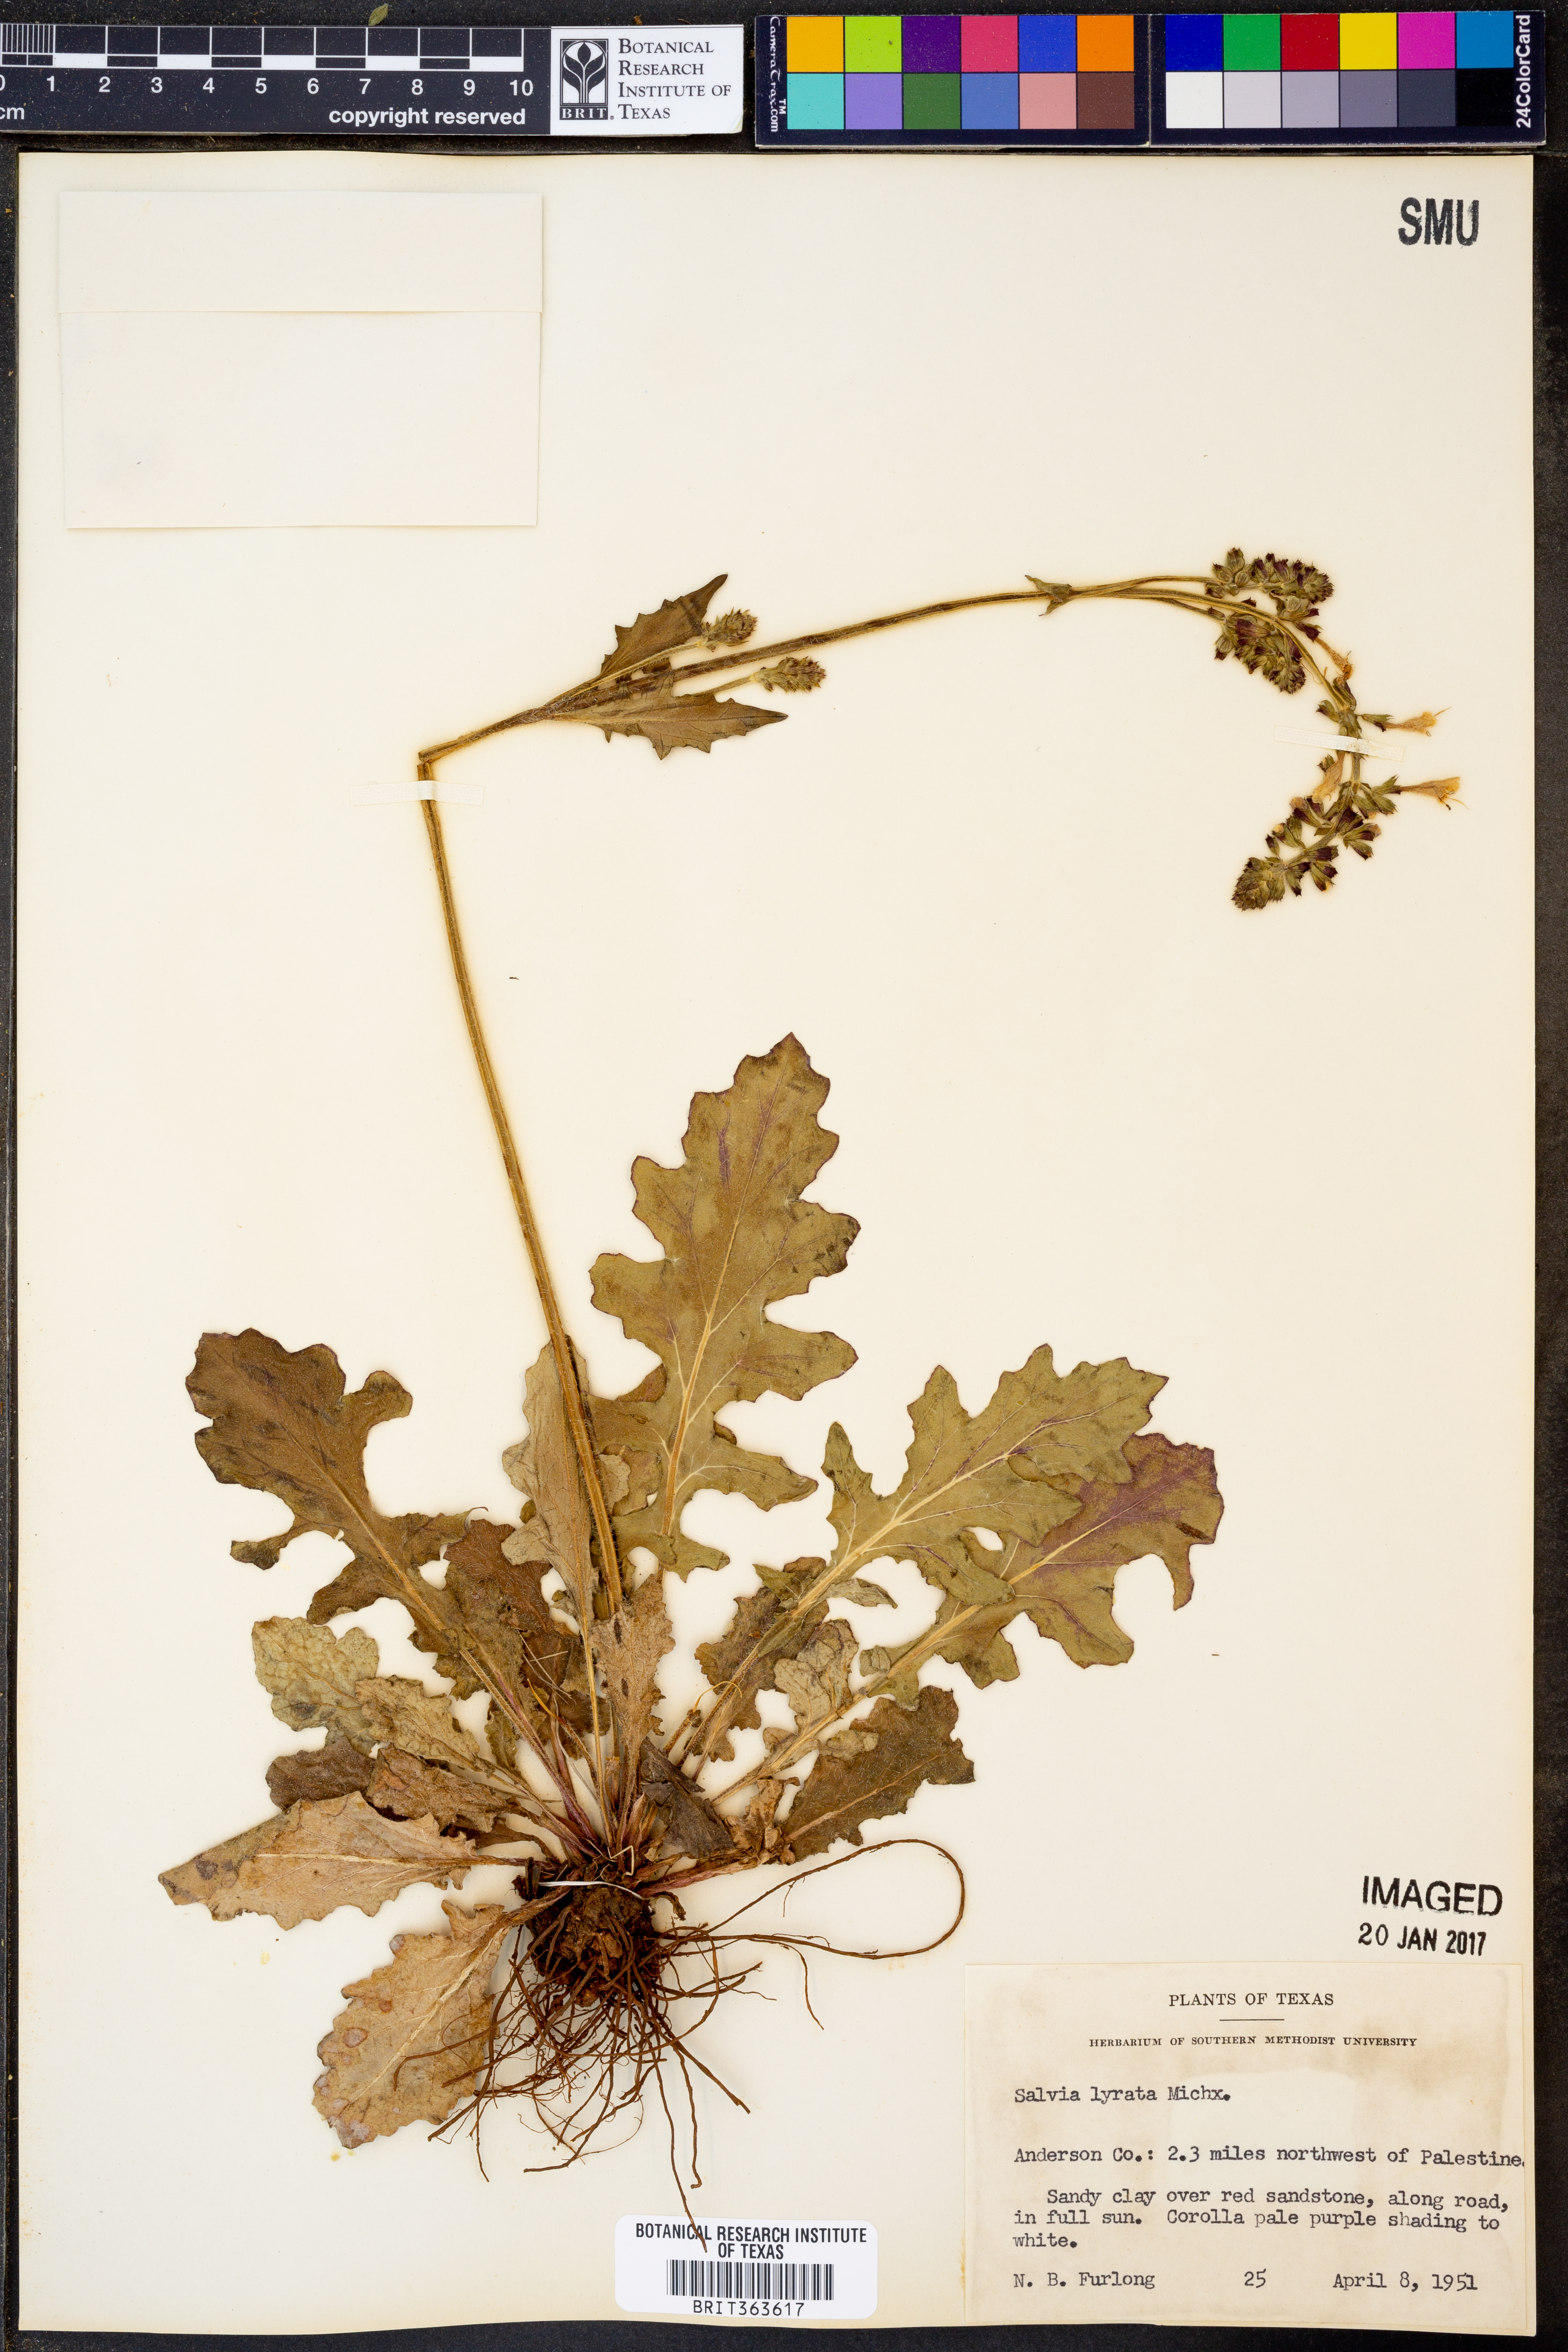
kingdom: Plantae
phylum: Tracheophyta
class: Magnoliopsida
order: Lamiales
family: Lamiaceae
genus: Salvia
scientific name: Salvia lyrata
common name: Cancerweed
